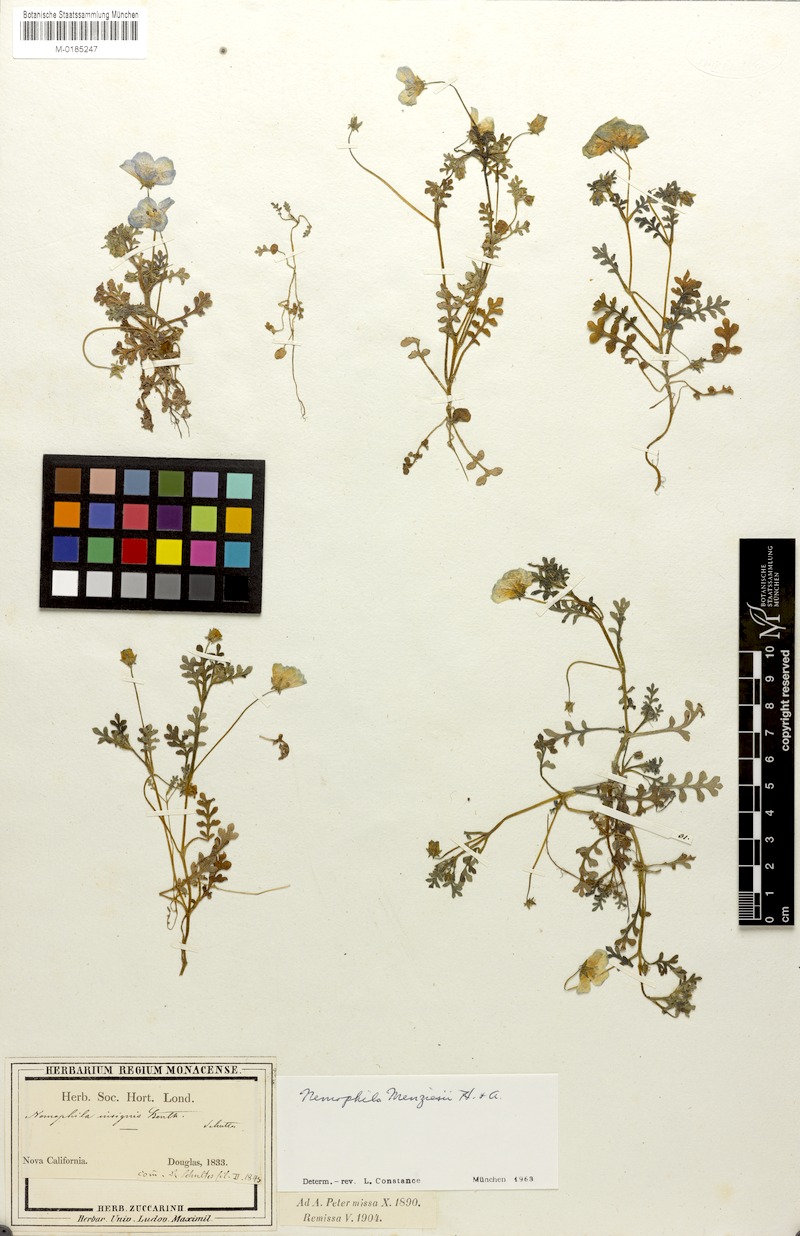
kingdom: Plantae
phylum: Tracheophyta
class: Magnoliopsida
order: Boraginales
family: Hydrophyllaceae
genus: Nemophila
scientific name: Nemophila menziesii
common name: Baby's-blue-eyes
